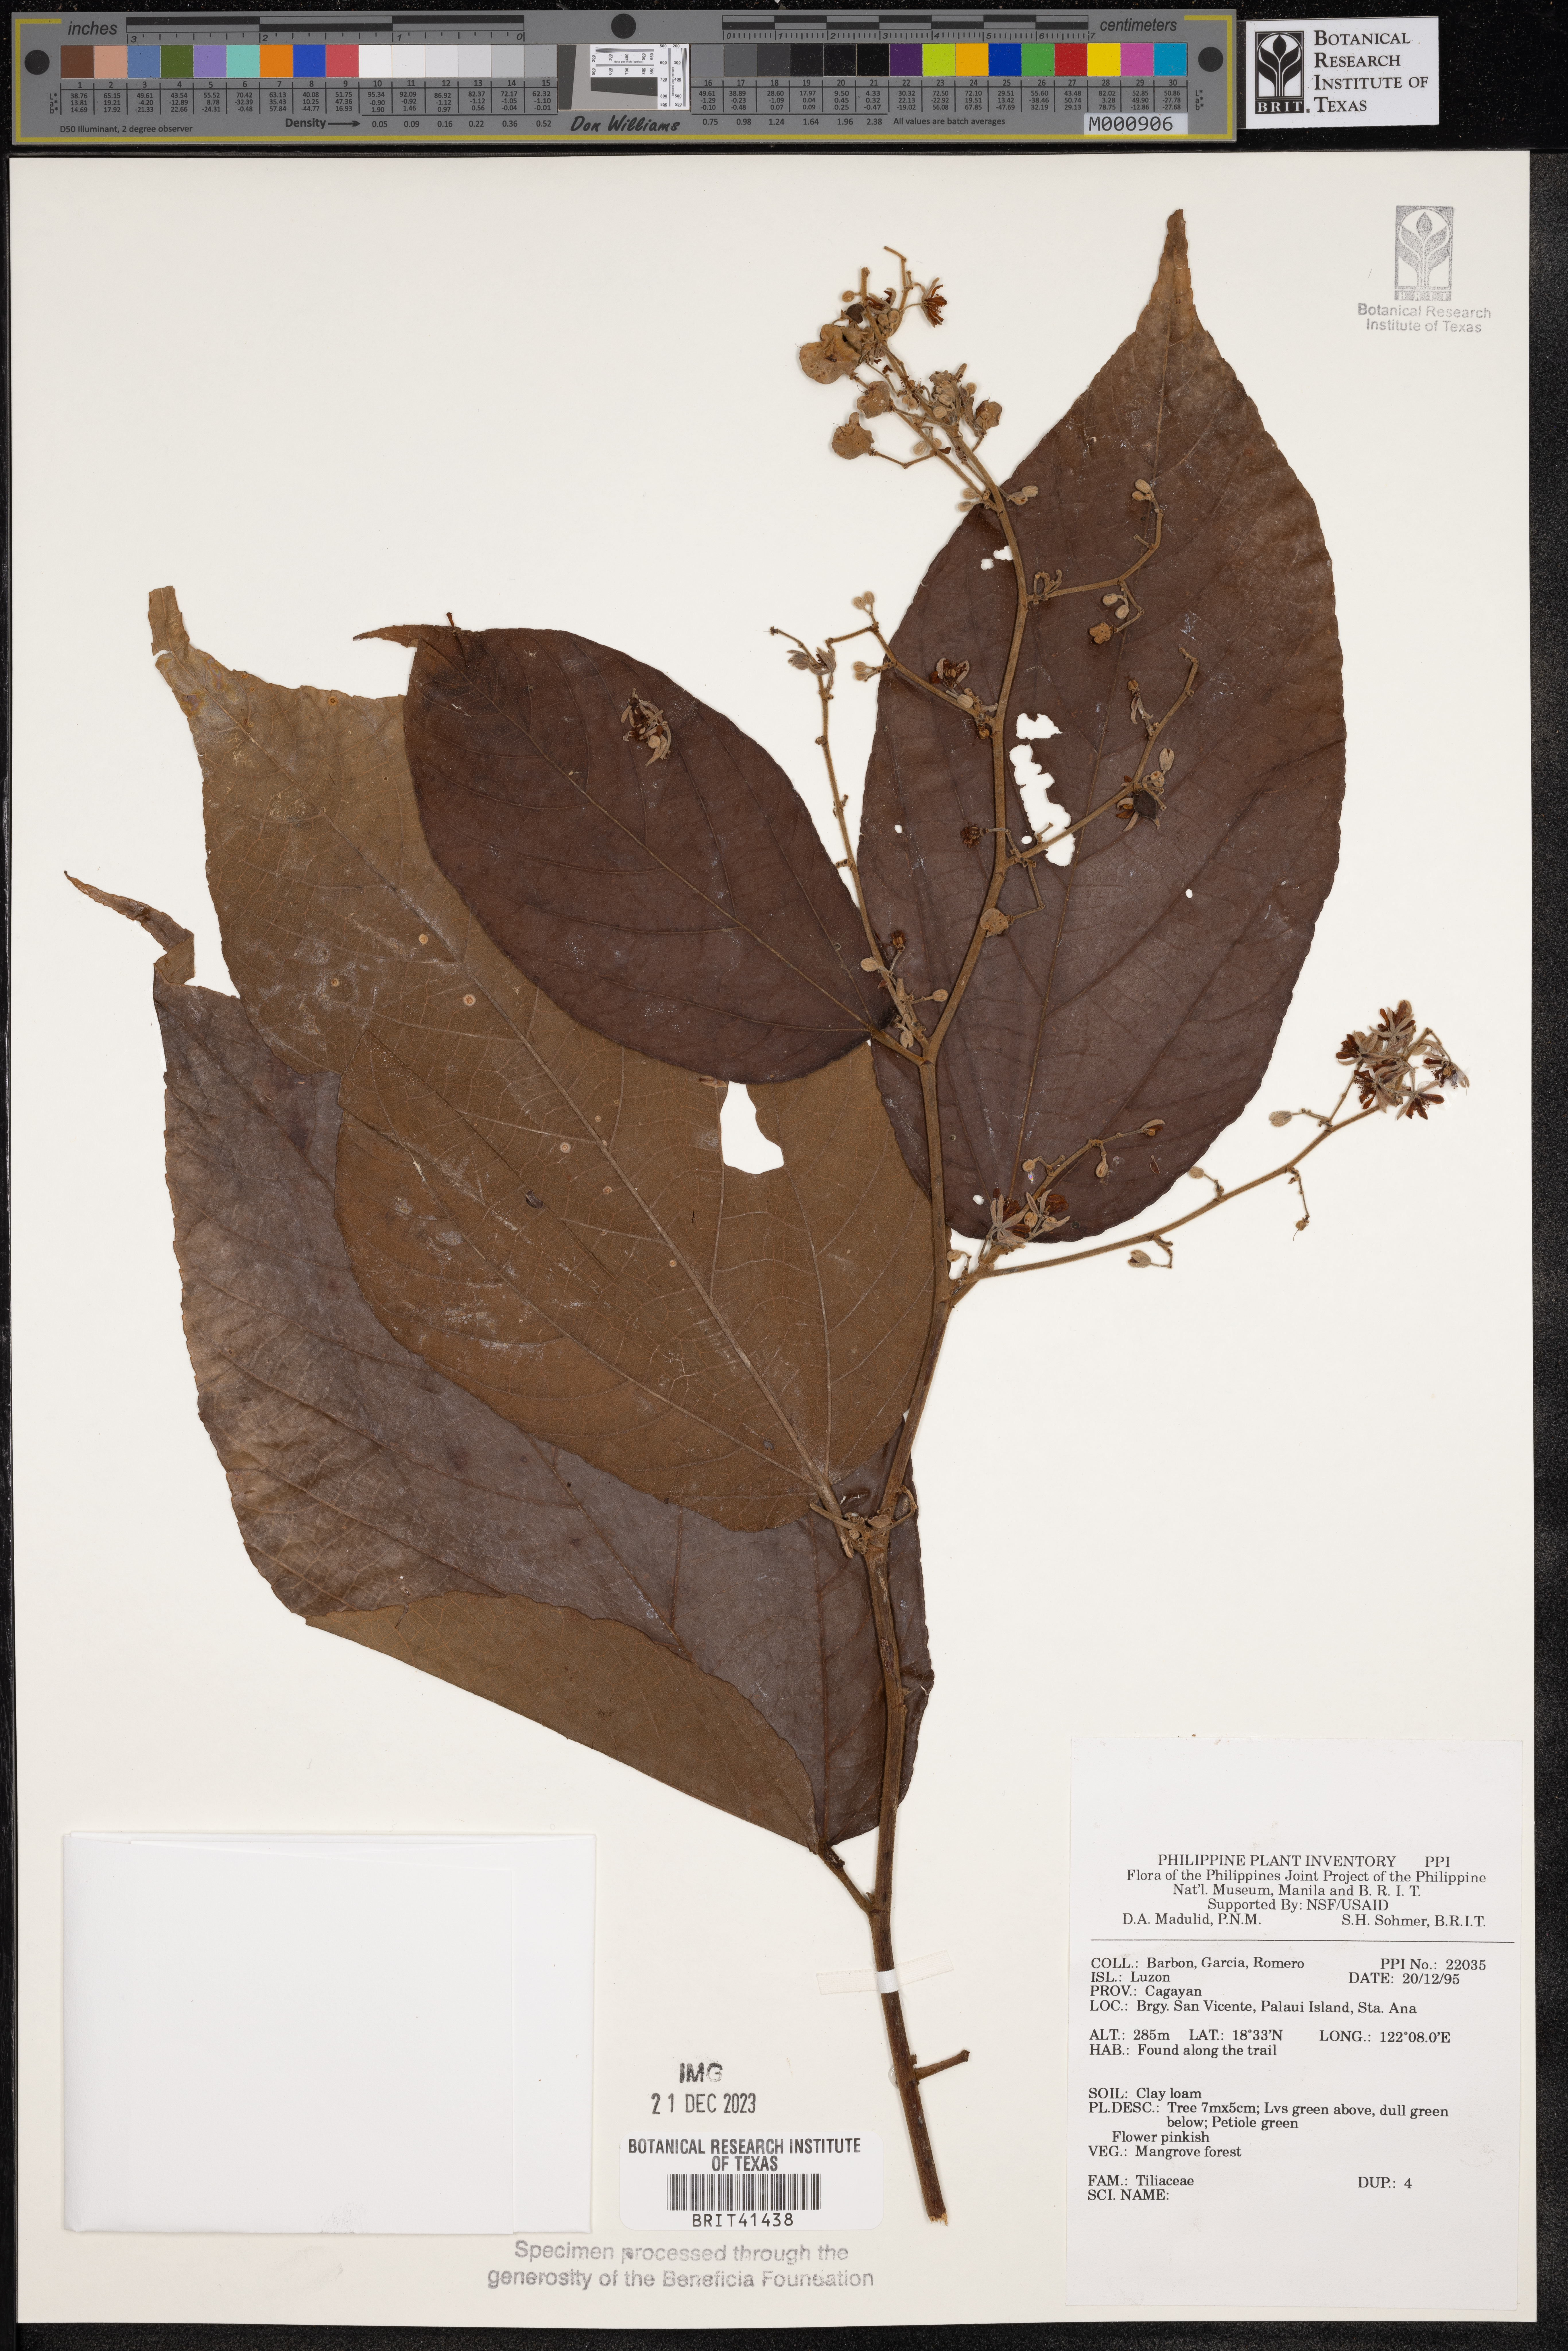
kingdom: Plantae
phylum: Tracheophyta
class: Magnoliopsida
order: Malvales
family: Tiliaceae
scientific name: Tiliaceae
